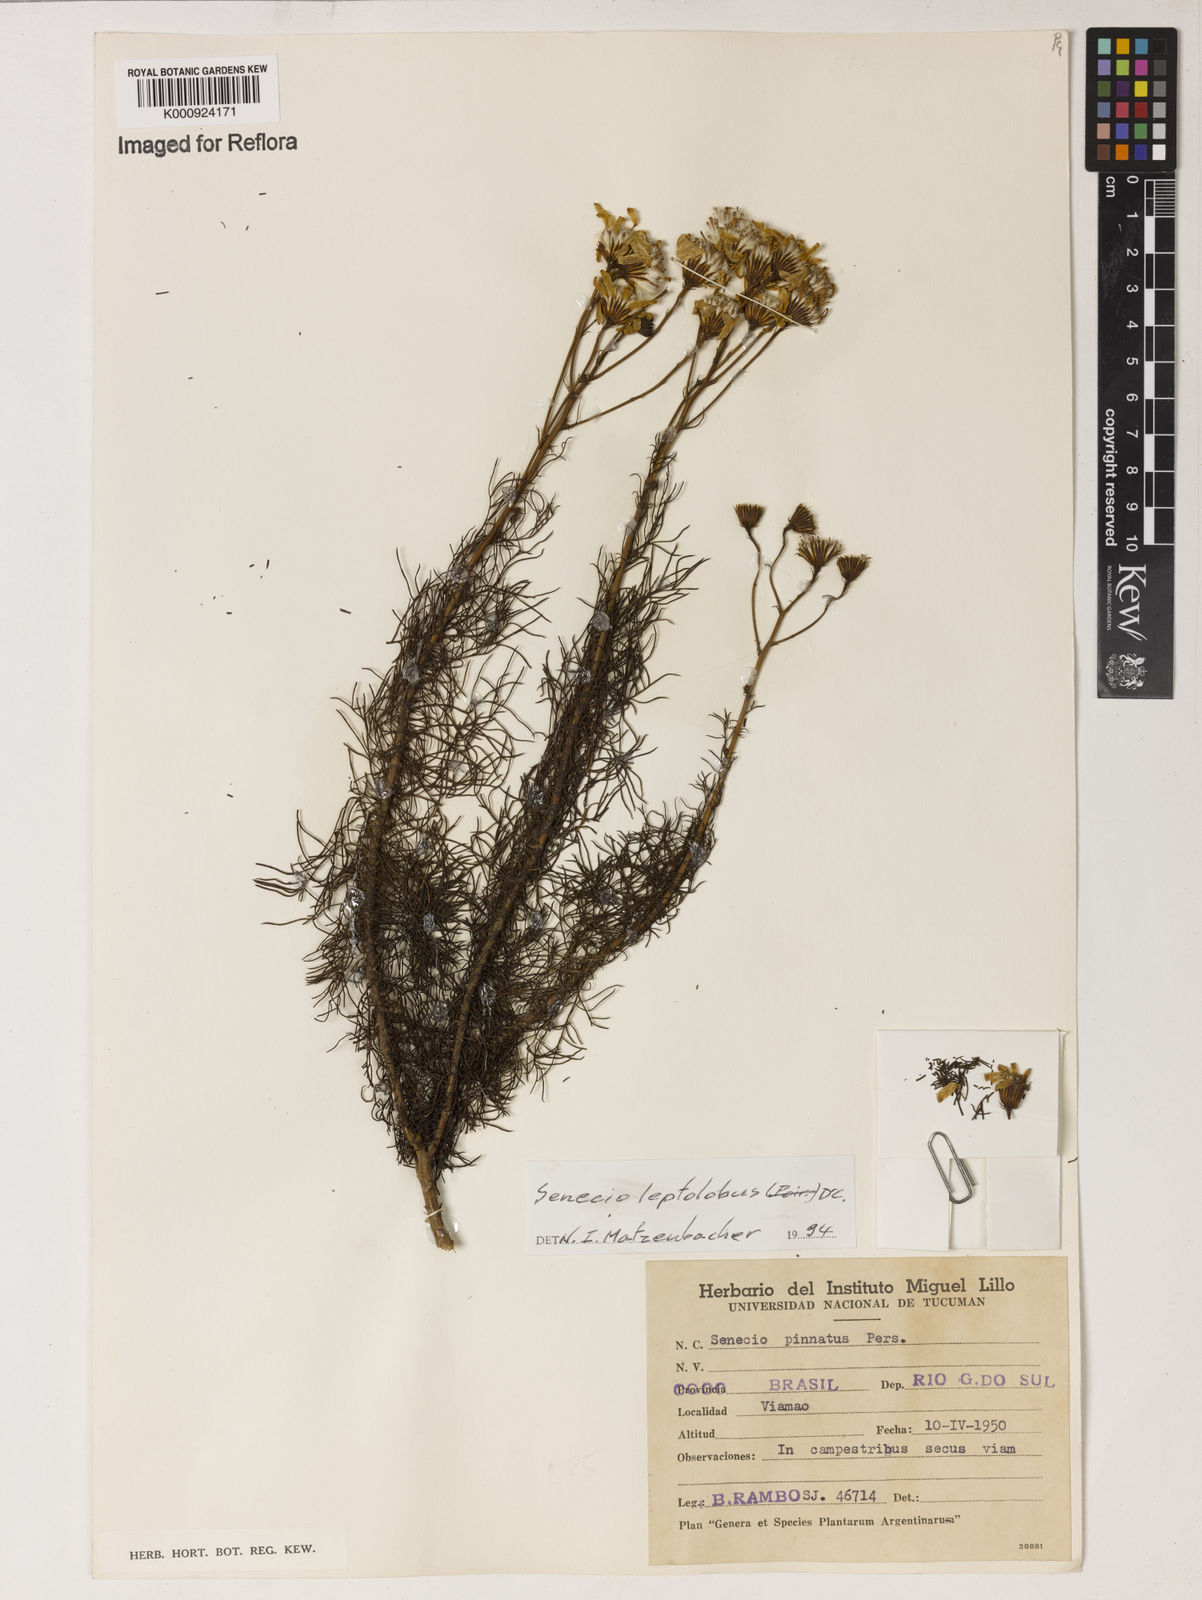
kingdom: Plantae
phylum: Tracheophyta
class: Magnoliopsida
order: Asterales
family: Asteraceae
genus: Senecio
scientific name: Senecio leptolobus
